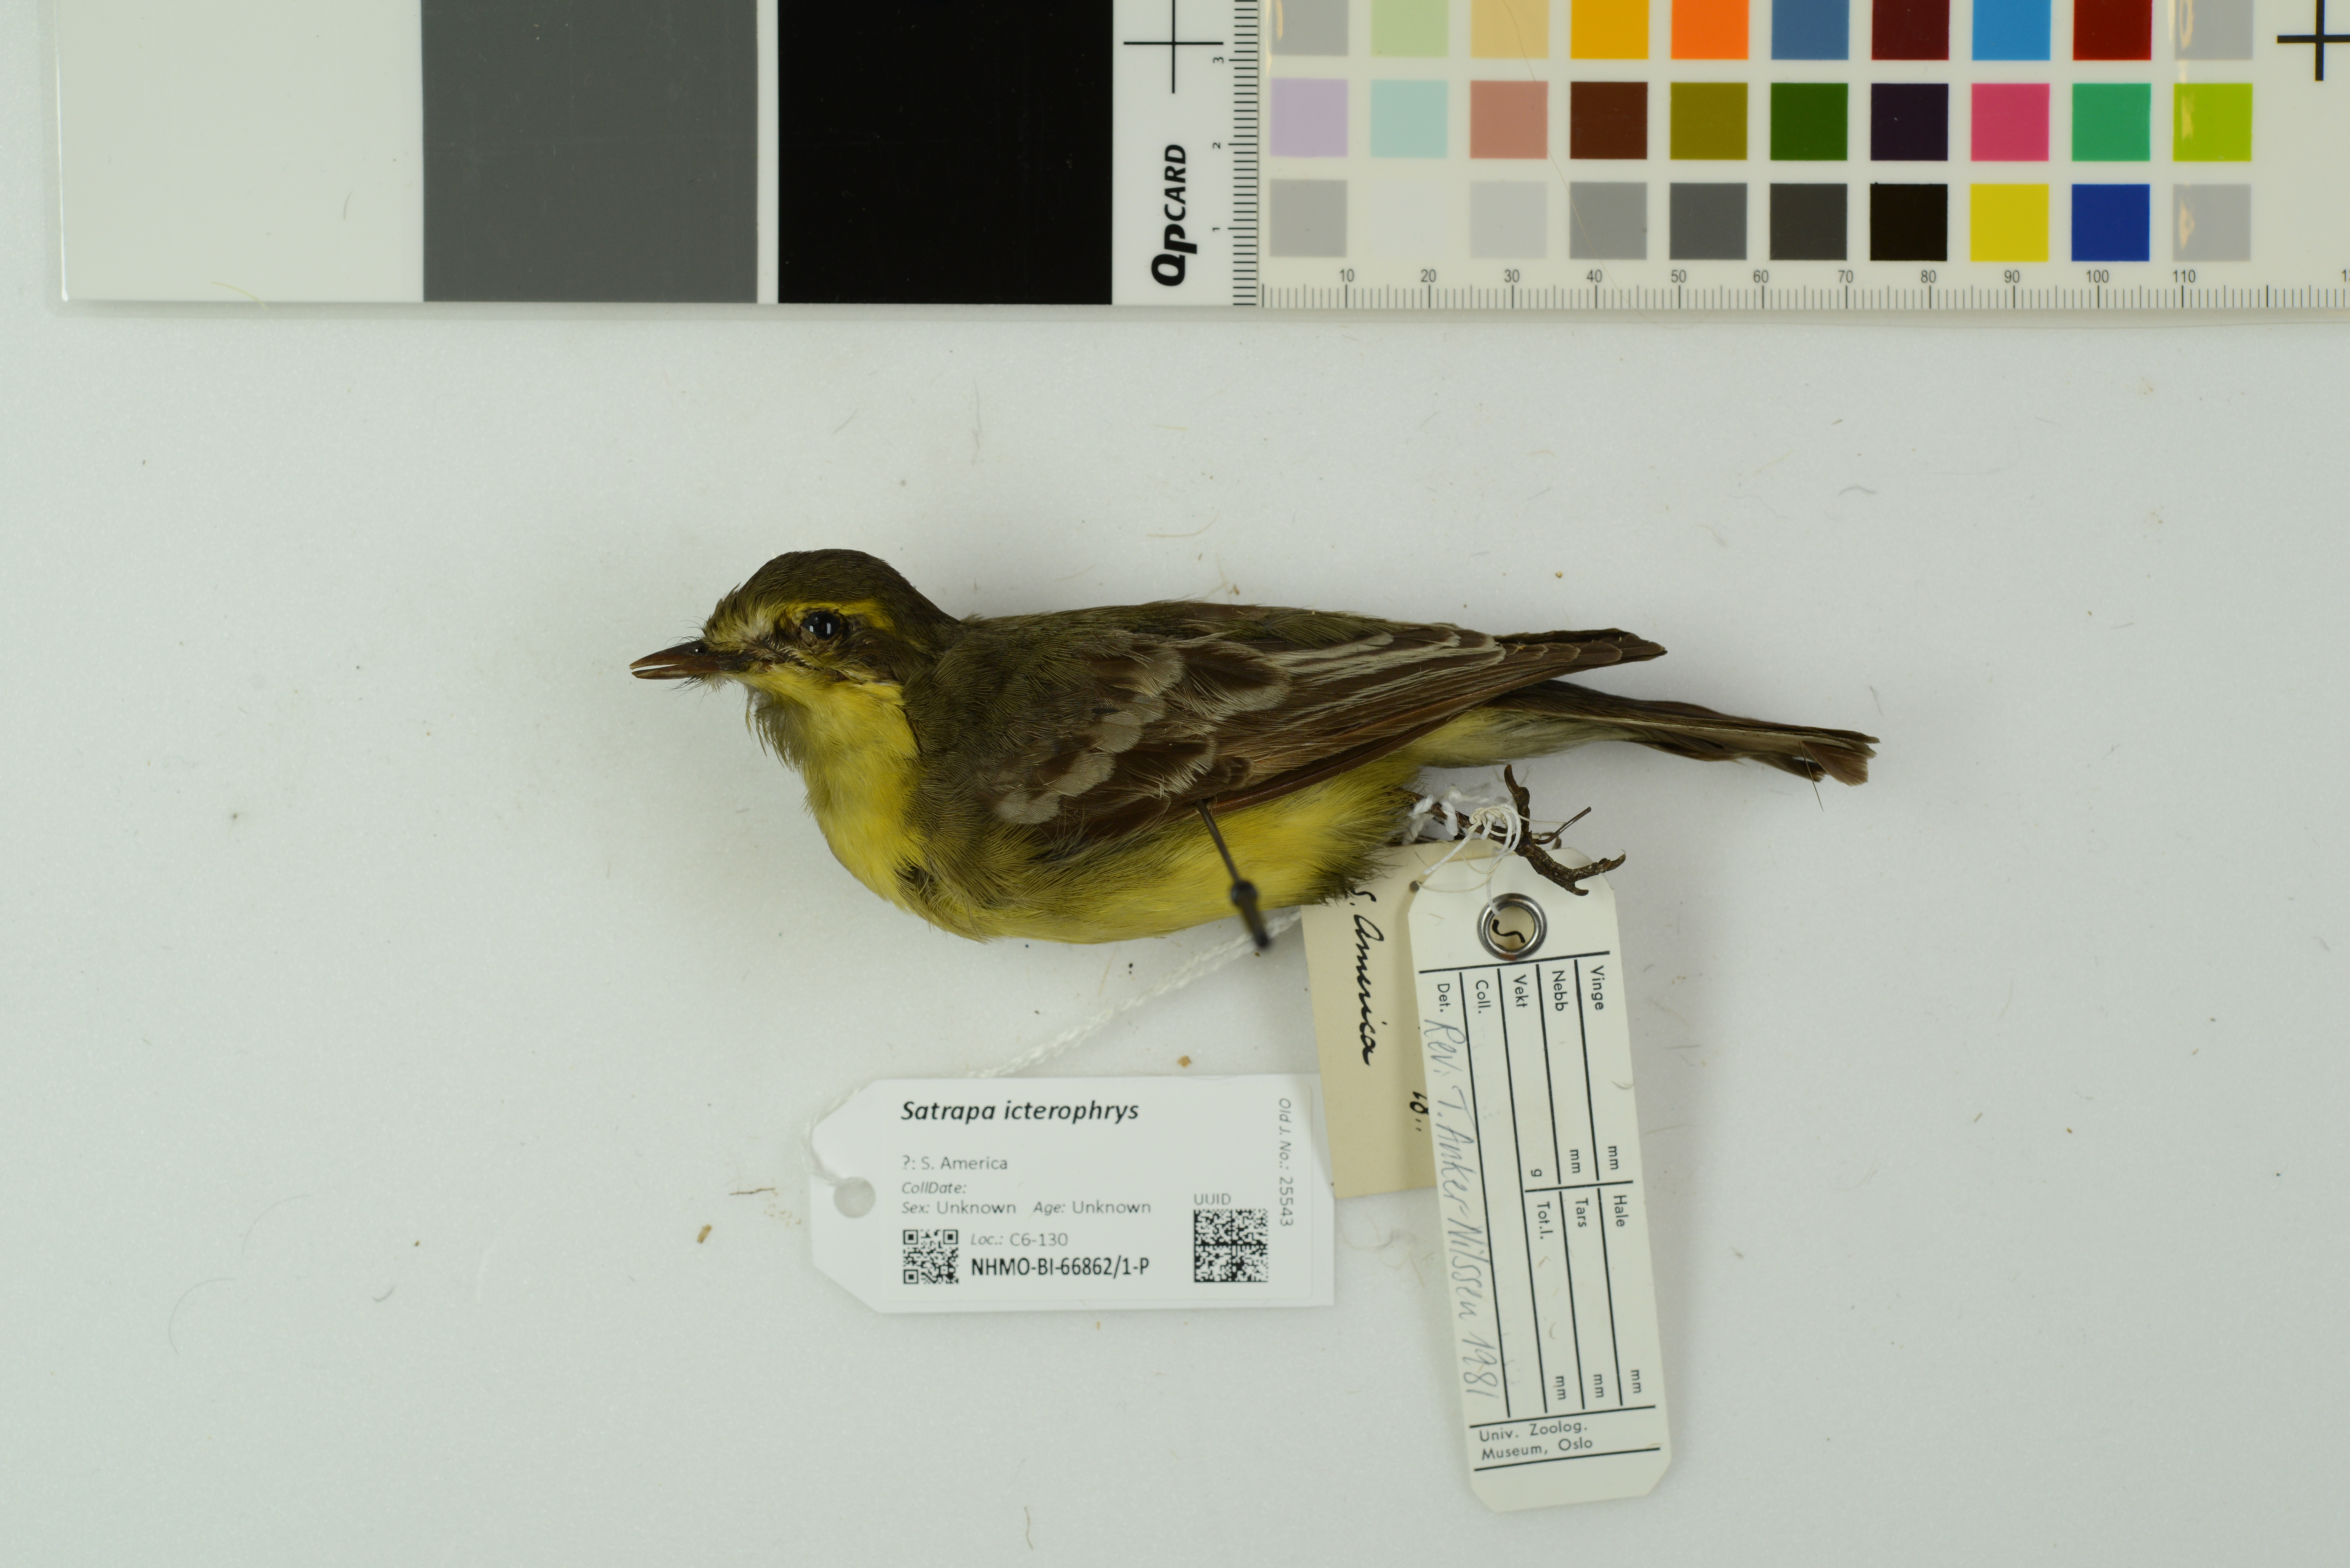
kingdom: Animalia
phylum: Chordata
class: Aves
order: Passeriformes
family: Tyrannidae
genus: Satrapa
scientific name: Satrapa icterophrys
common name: Yellow-browed tyrant
